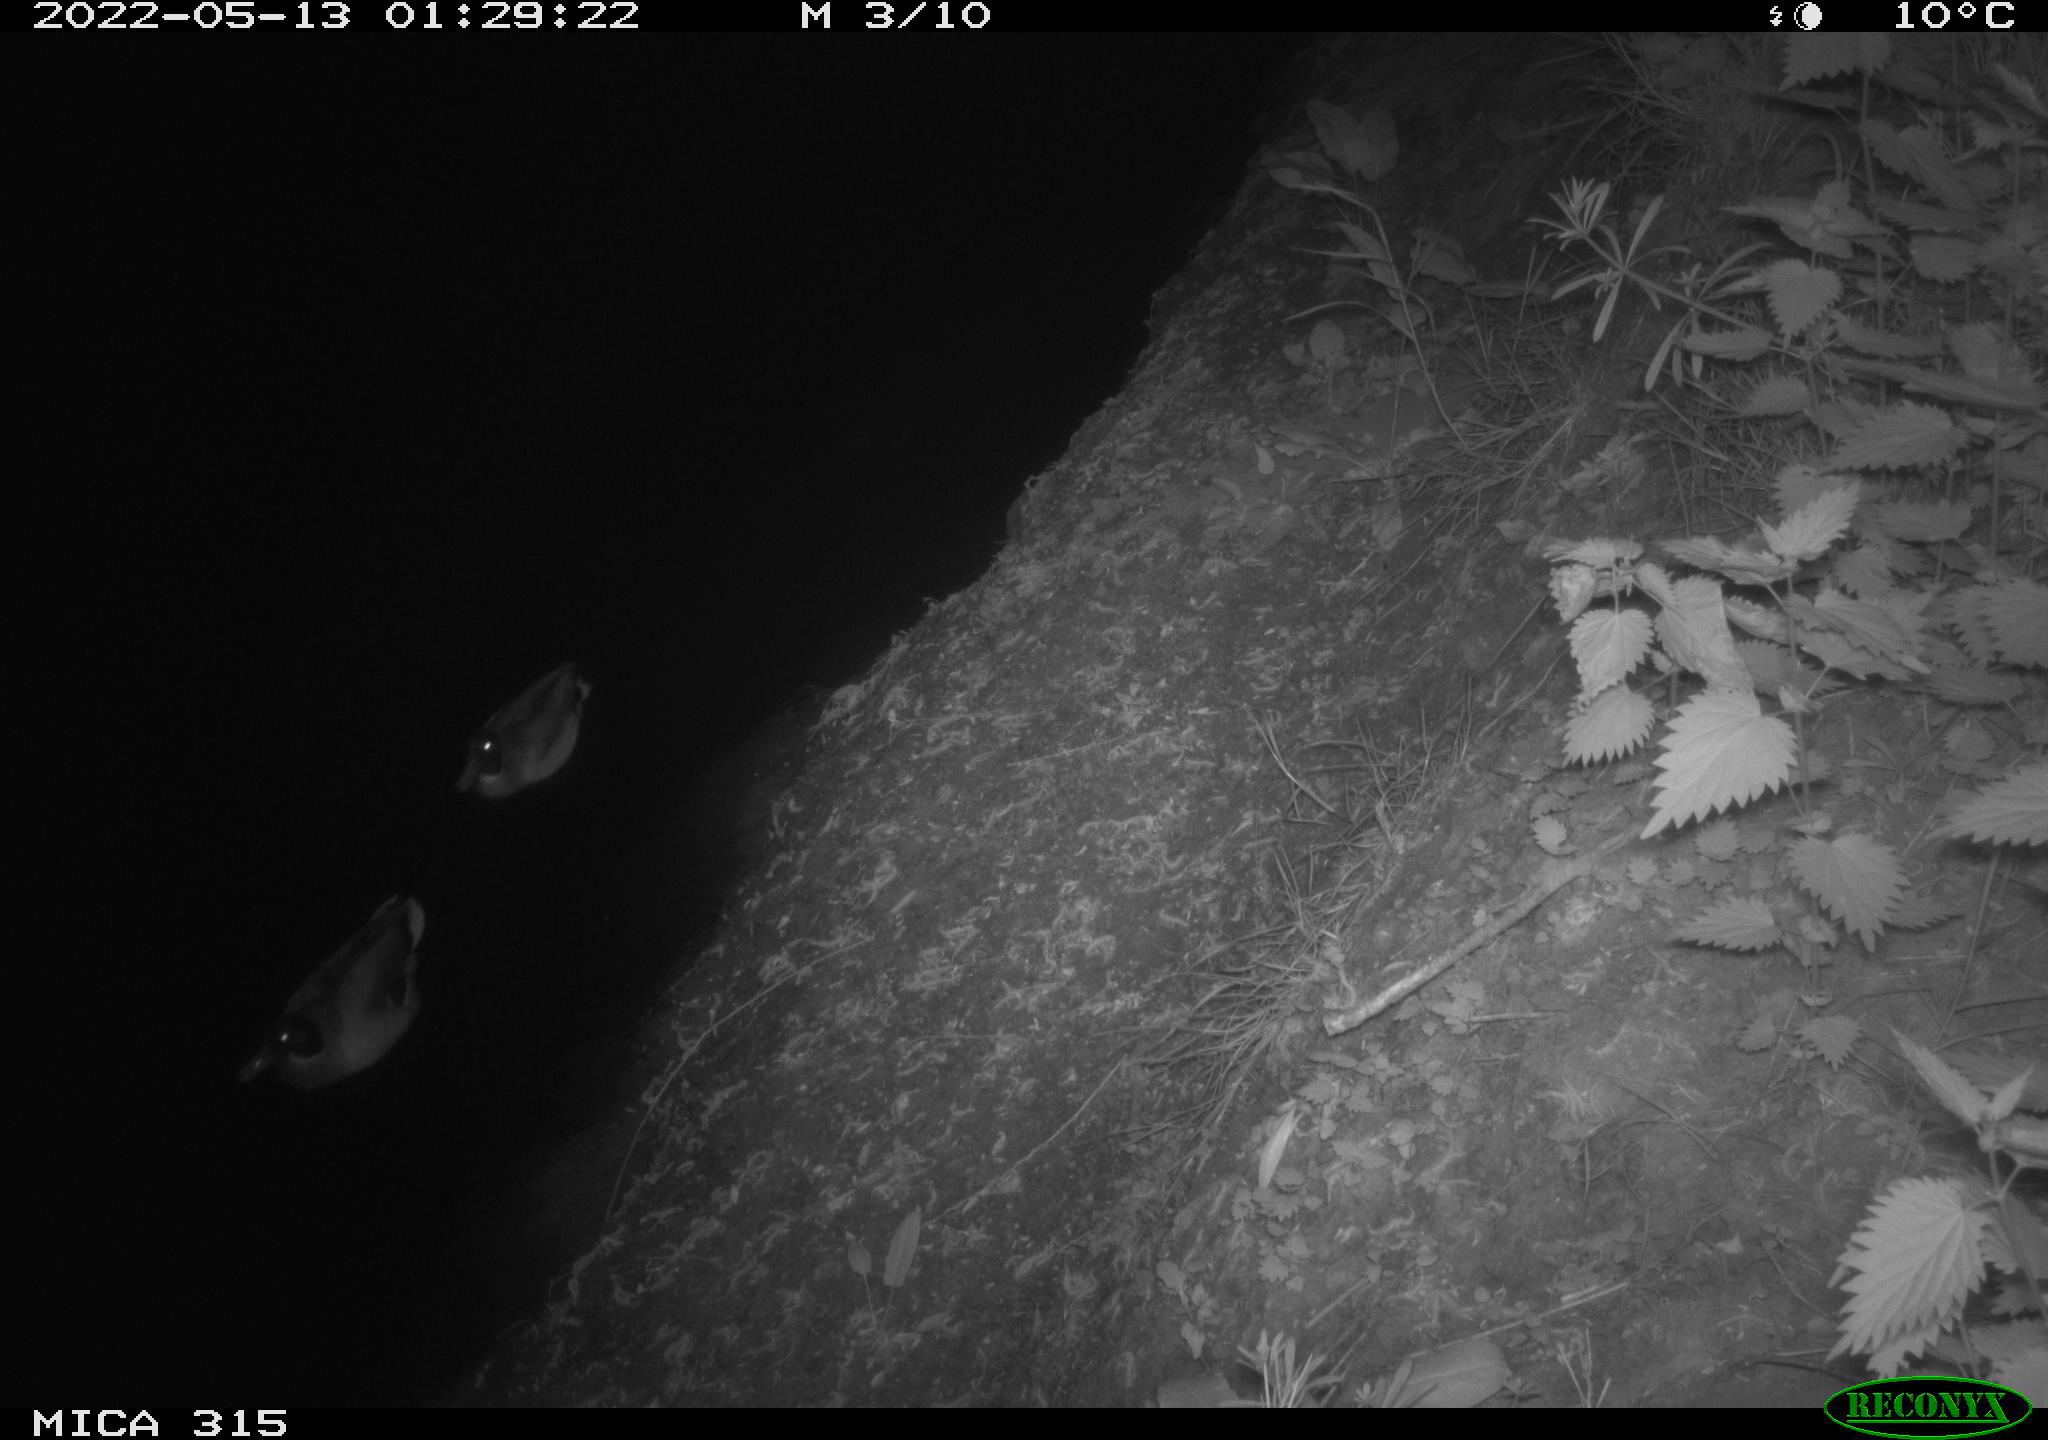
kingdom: Animalia
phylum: Chordata
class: Aves
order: Anseriformes
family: Anatidae
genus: Anas
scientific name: Anas
